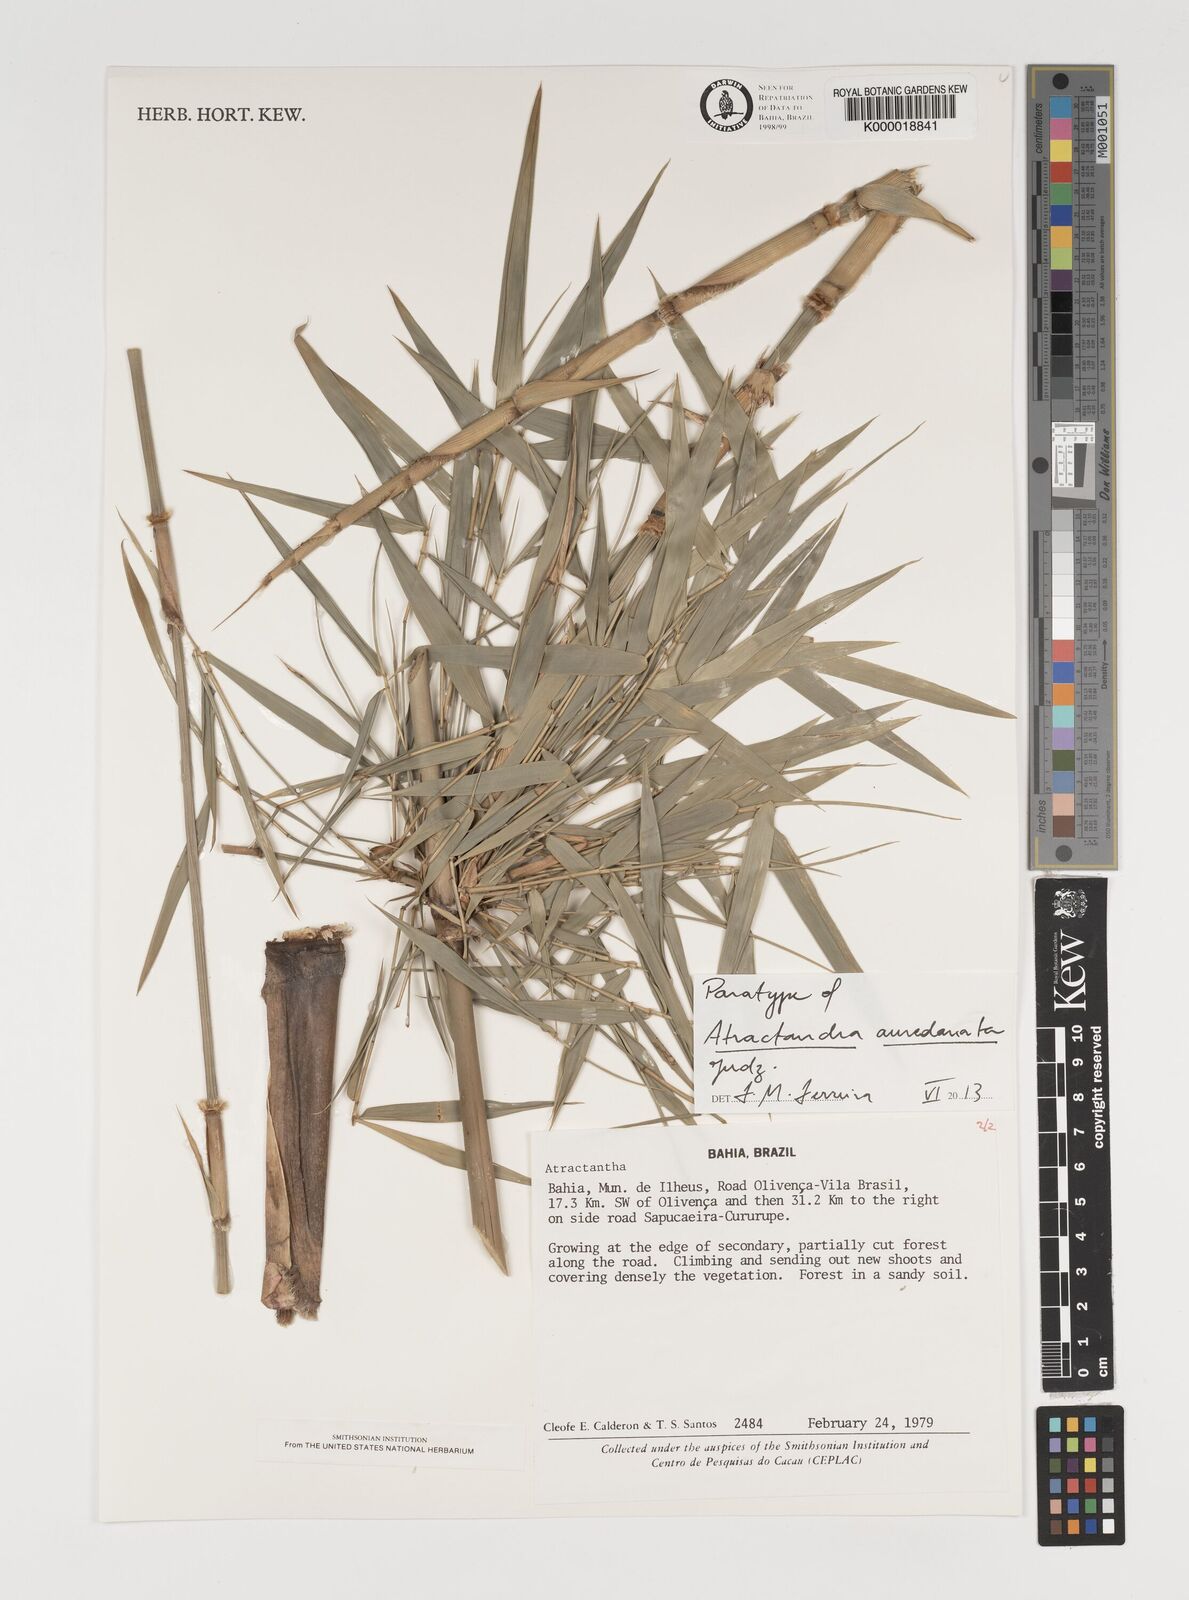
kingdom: Plantae
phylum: Tracheophyta
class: Liliopsida
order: Poales
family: Poaceae
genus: Atractantha
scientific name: Atractantha aureolanata
